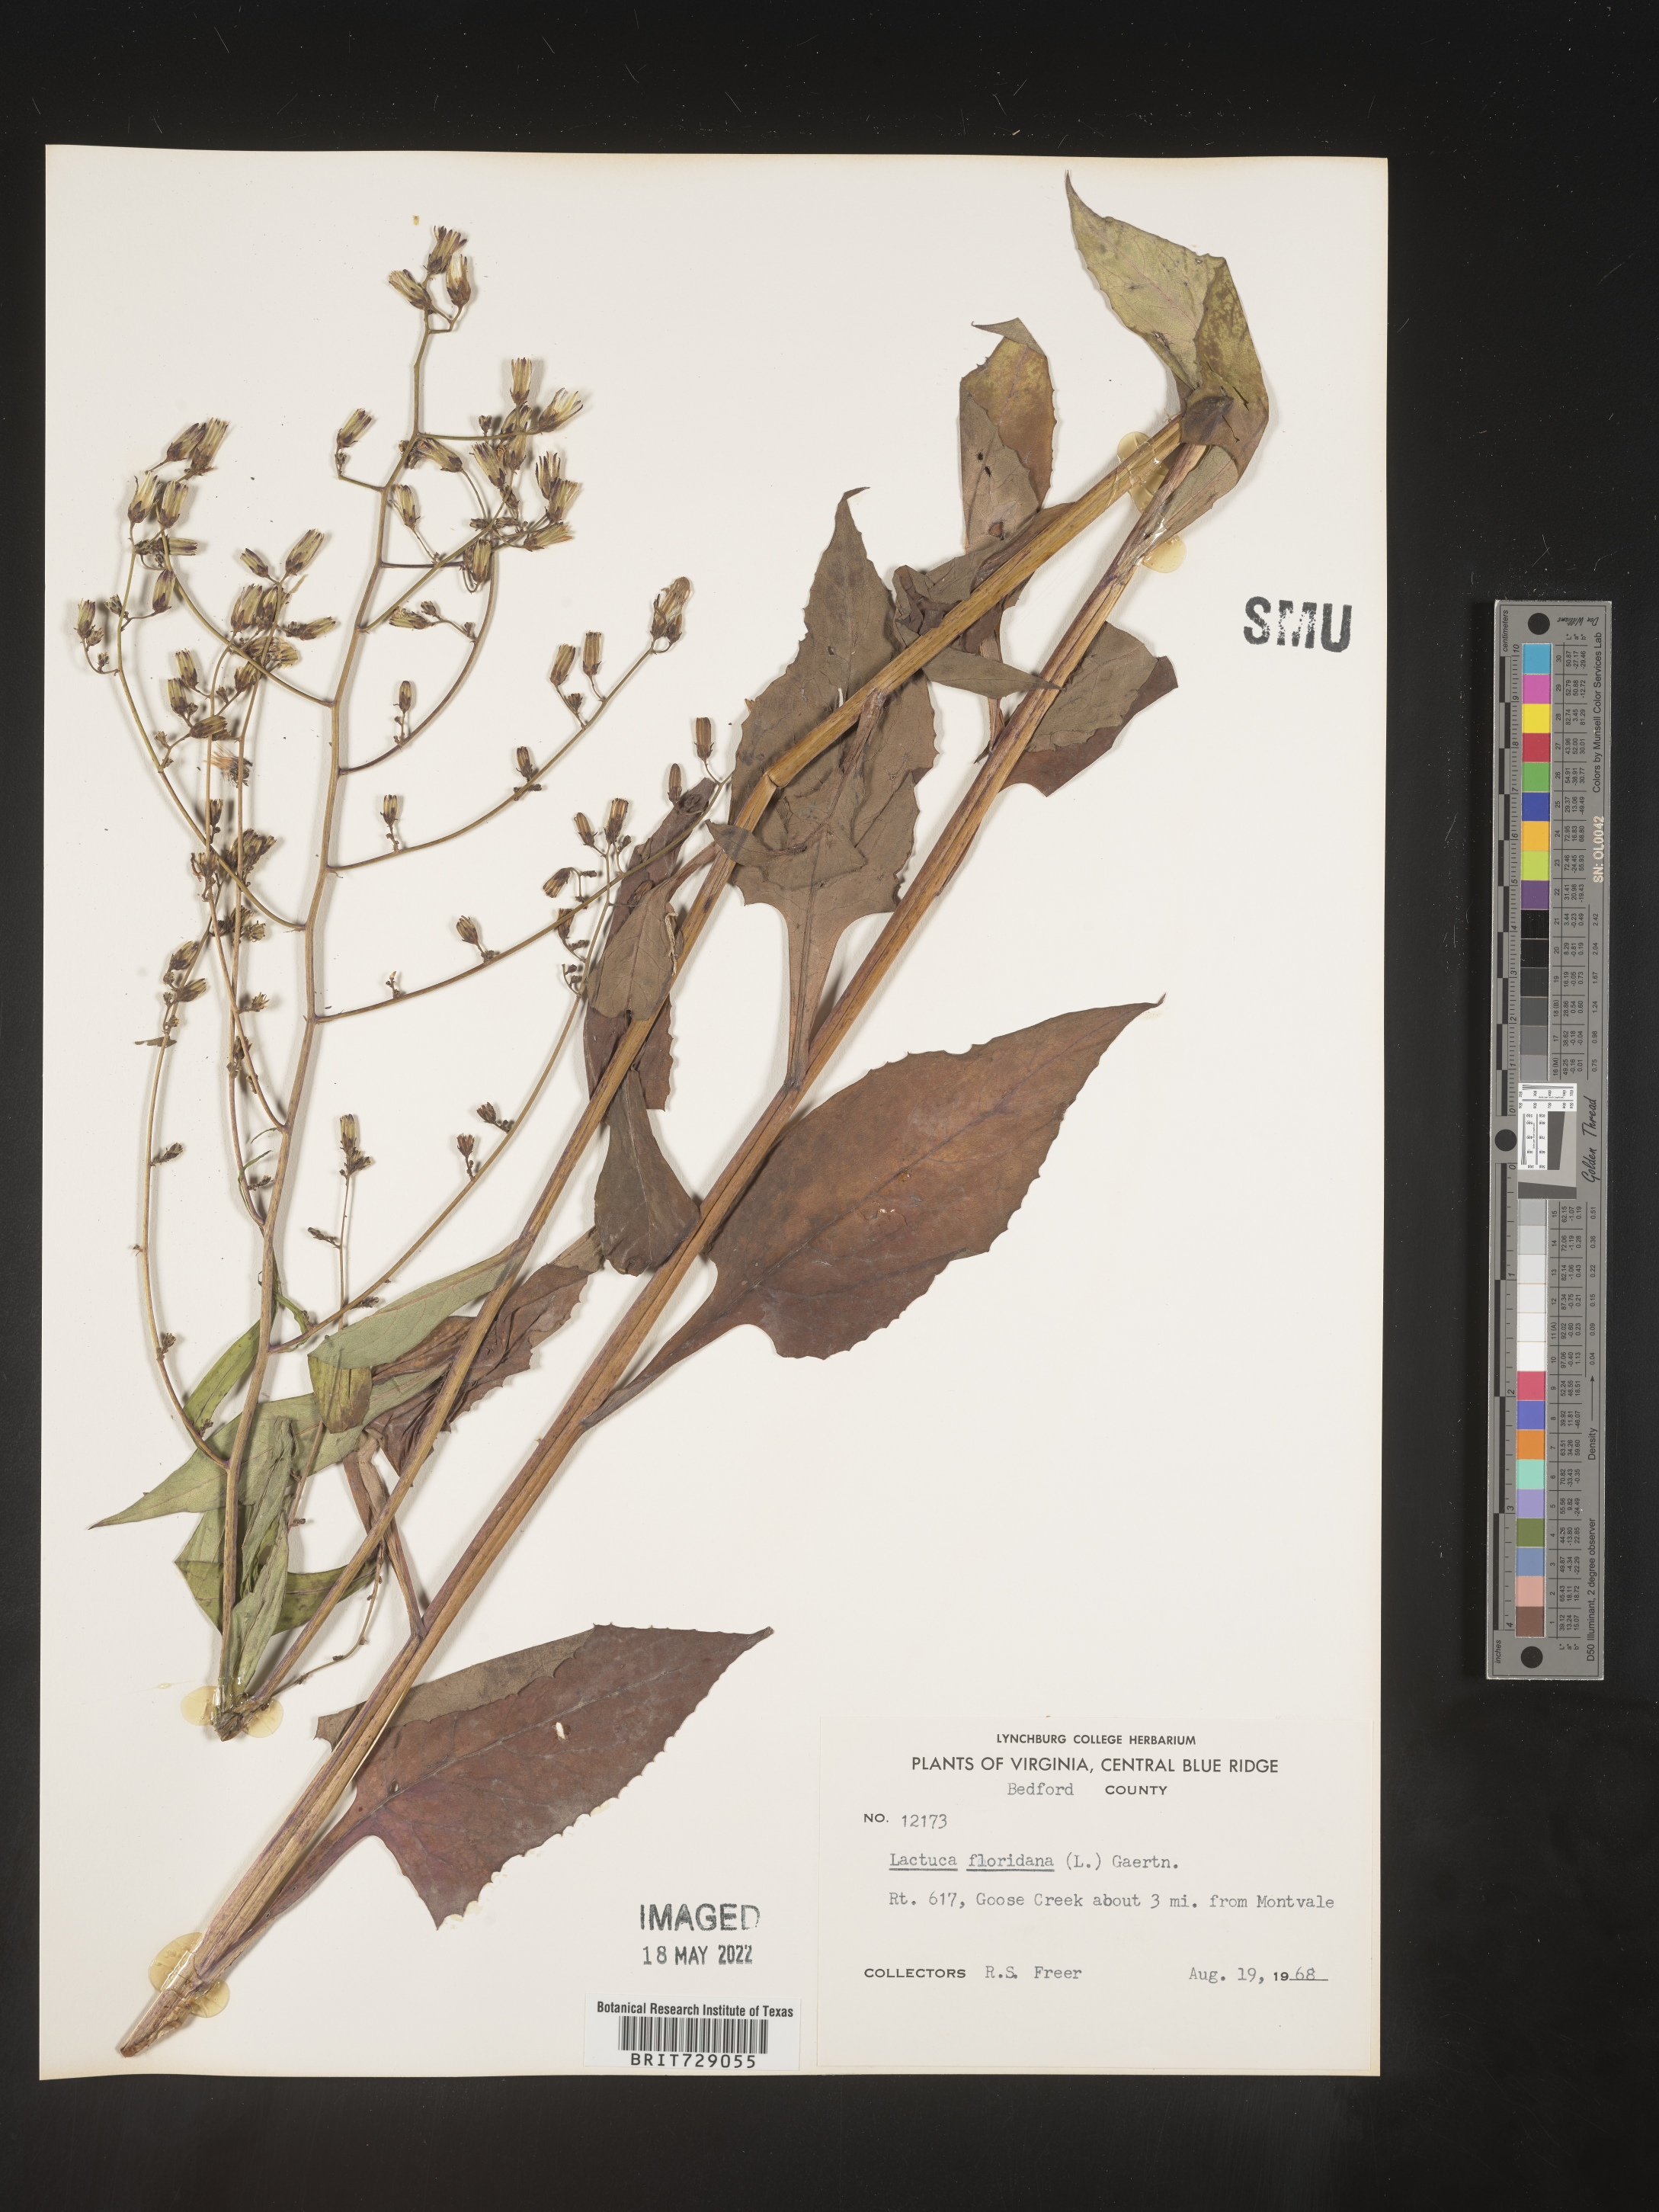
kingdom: Plantae
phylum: Tracheophyta
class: Magnoliopsida
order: Asterales
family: Asteraceae
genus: Lactuca
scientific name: Lactuca floridana
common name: Woodland lettuce
